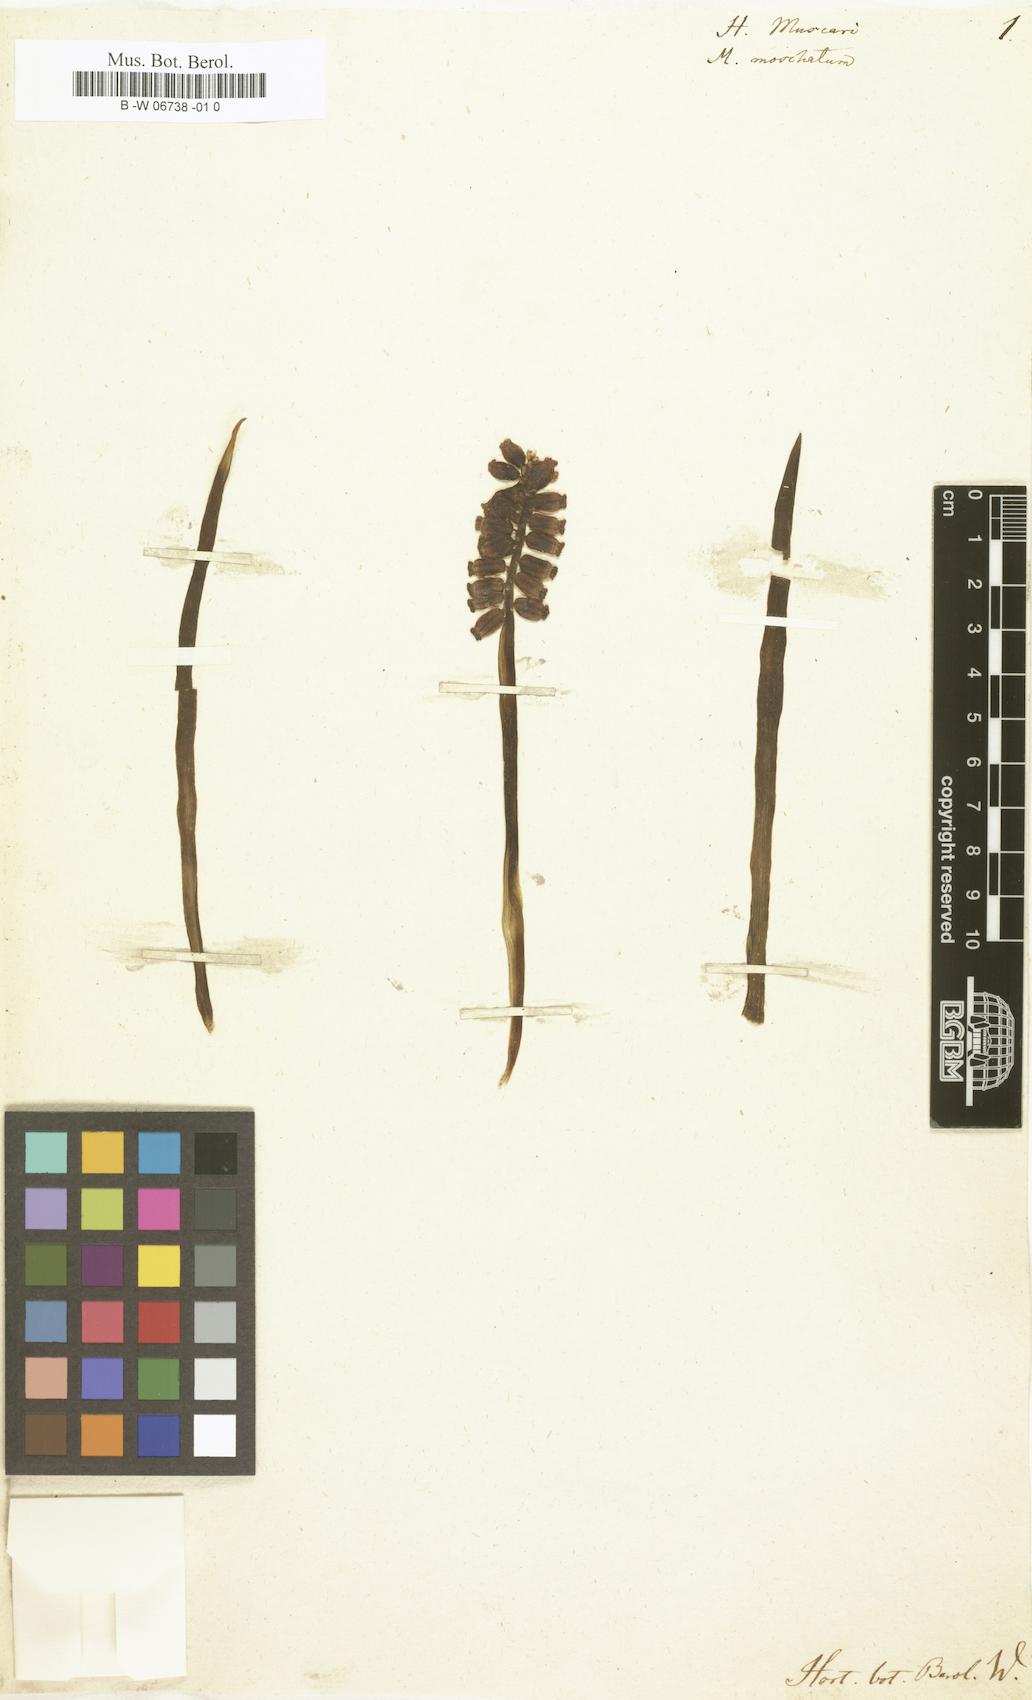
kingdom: Plantae
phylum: Tracheophyta
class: Liliopsida
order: Asparagales
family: Asparagaceae
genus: Muscarimia
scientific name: Muscarimia muscari
